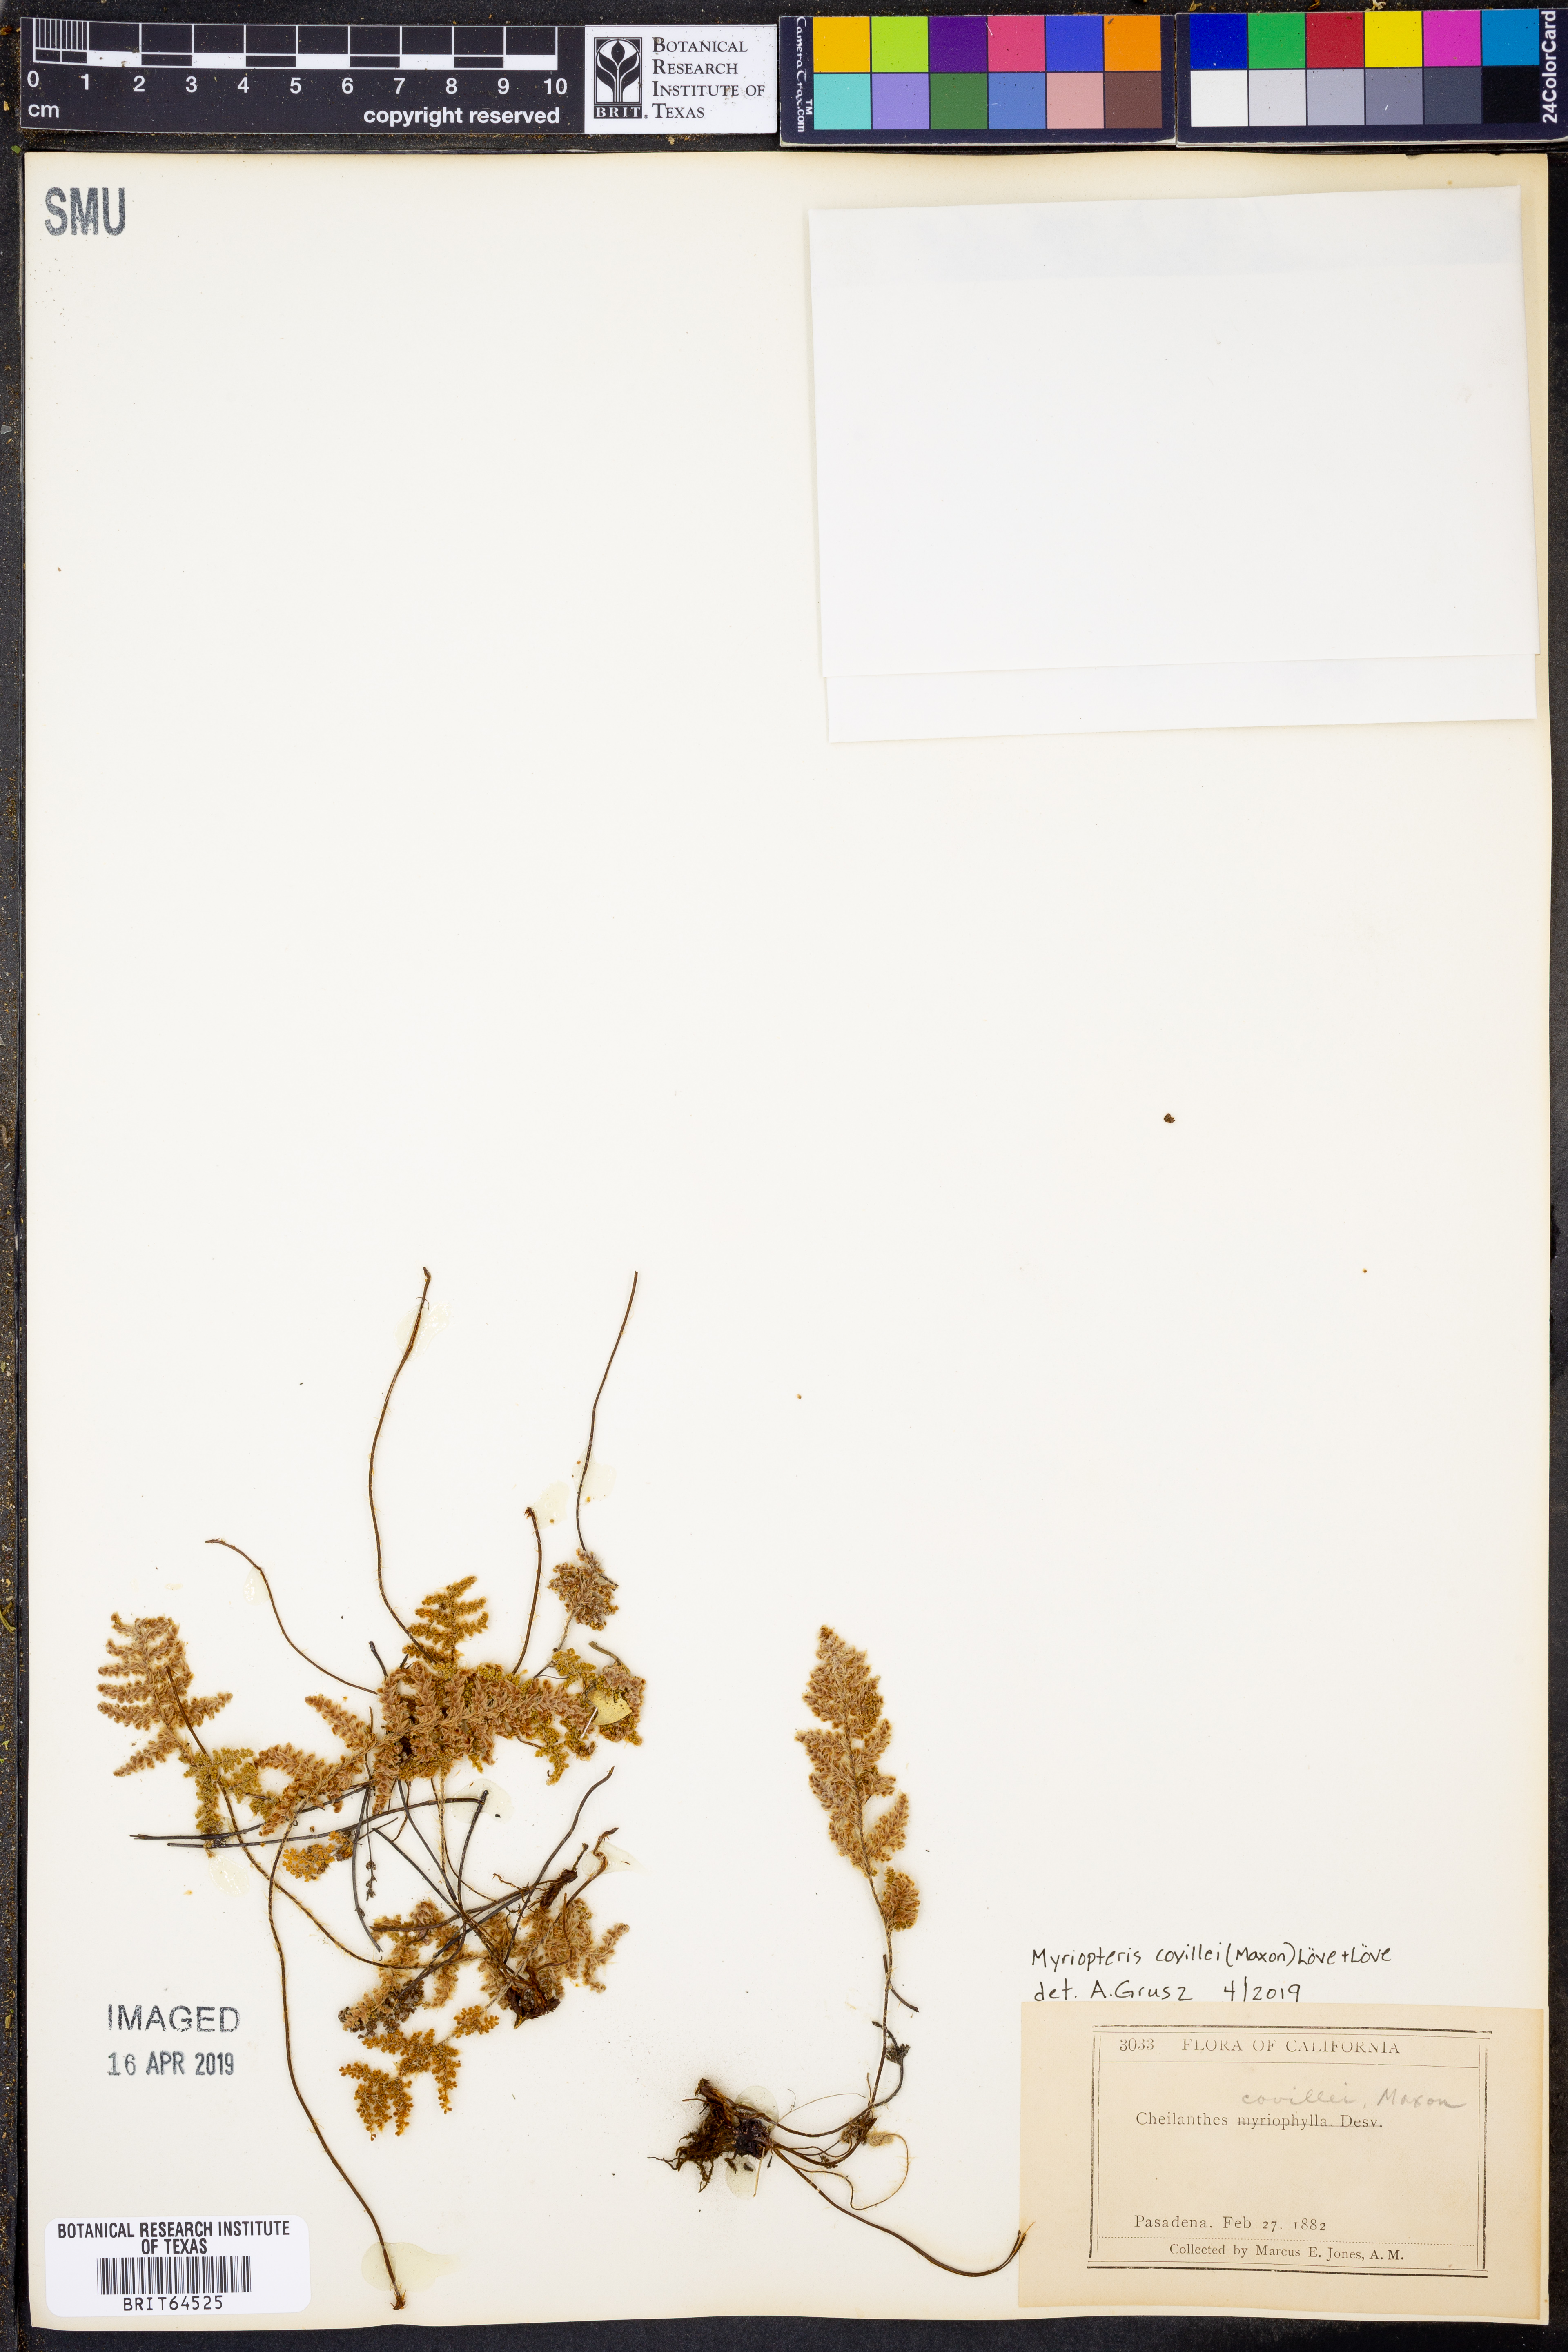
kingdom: Plantae
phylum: Tracheophyta
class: Polypodiopsida
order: Polypodiales
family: Pteridaceae
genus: Myriopteris
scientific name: Myriopteris covillei
